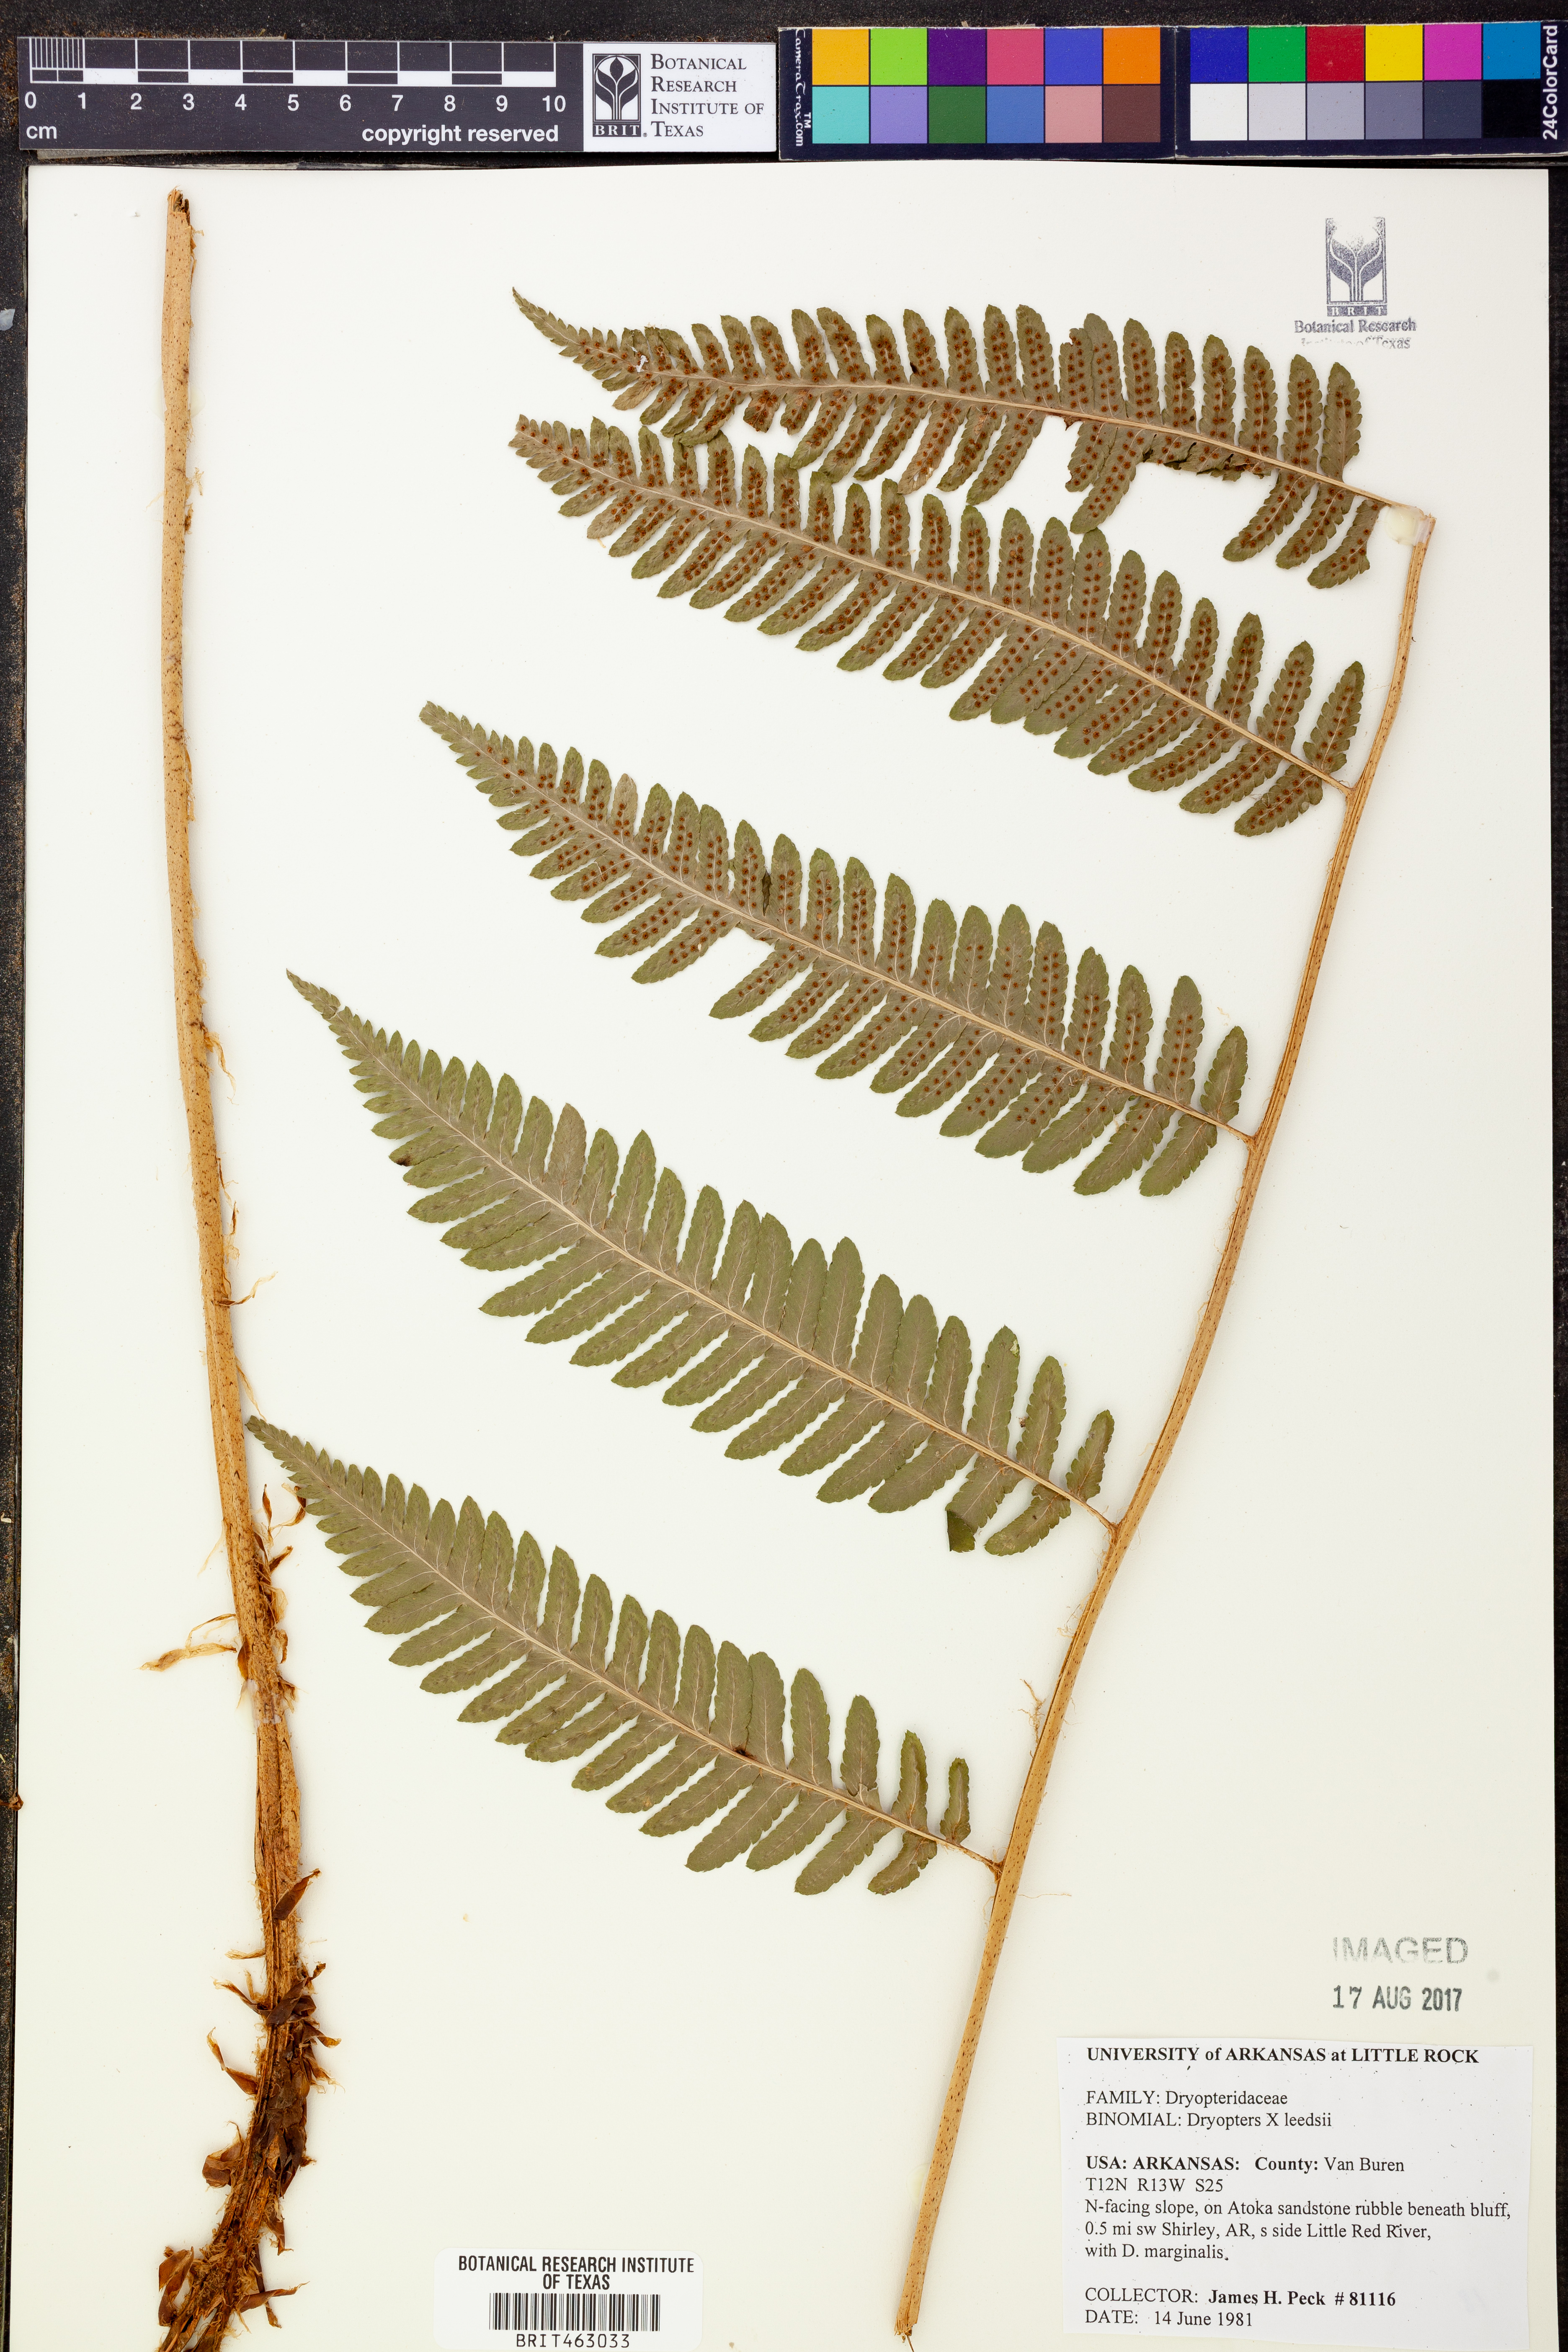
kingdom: Plantae
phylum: Tracheophyta
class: Polypodiopsida
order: Polypodiales
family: Dryopteridaceae
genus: Dryopteris
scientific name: Dryopteris
